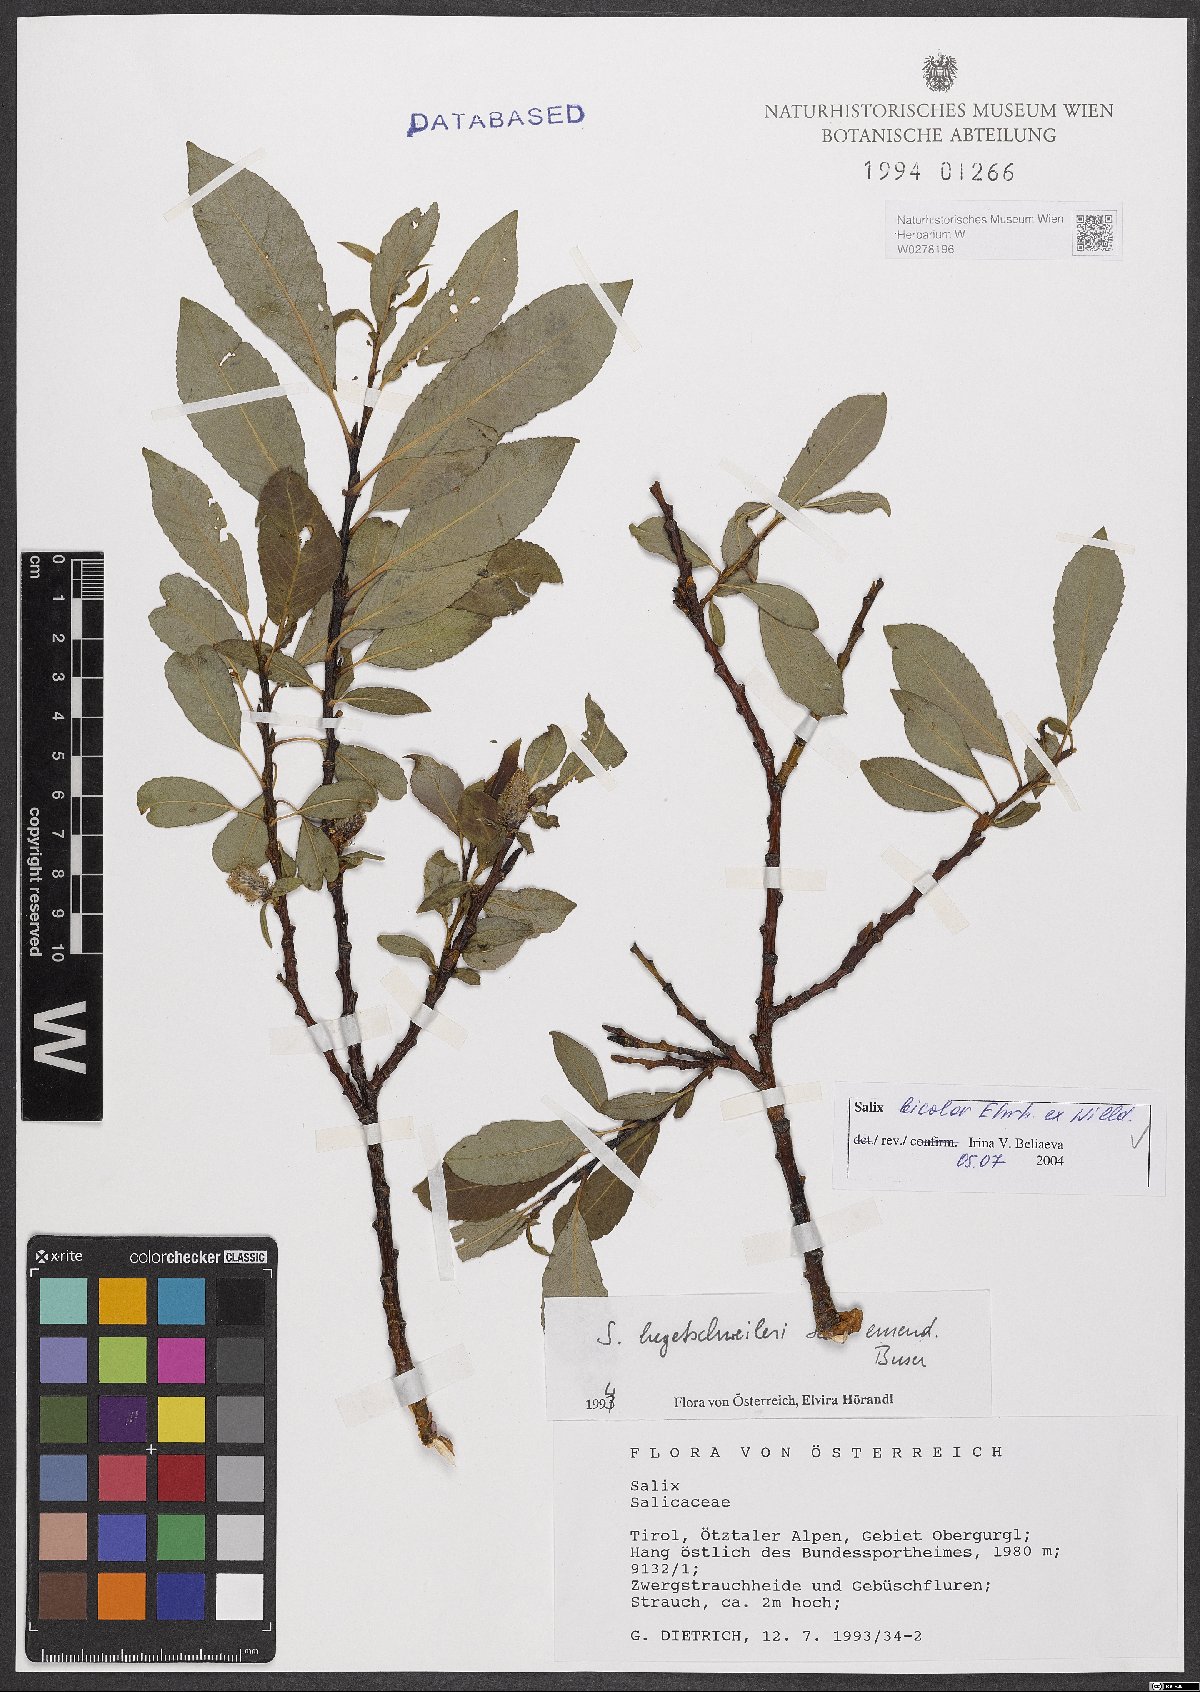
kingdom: Plantae
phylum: Tracheophyta
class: Magnoliopsida
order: Malpighiales
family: Salicaceae
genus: Salix
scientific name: Salix bicolor
